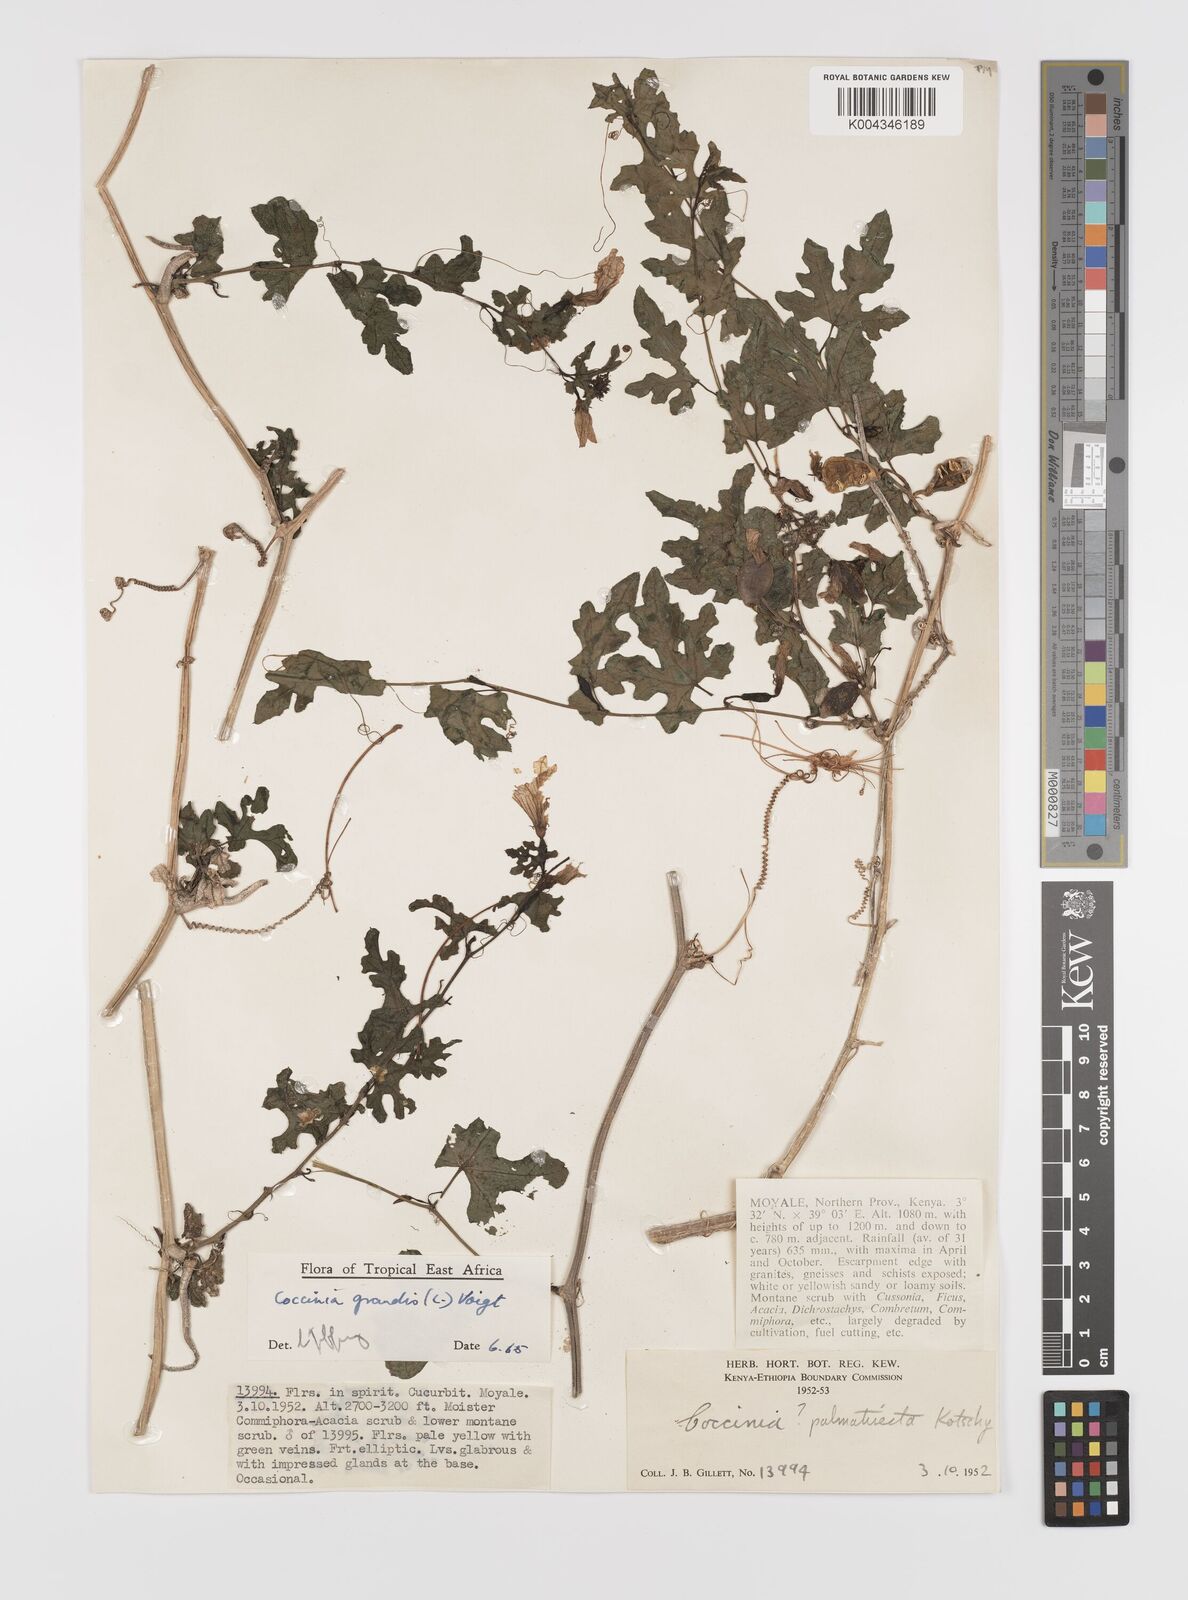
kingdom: Plantae
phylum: Tracheophyta
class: Magnoliopsida
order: Cucurbitales
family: Cucurbitaceae
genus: Coccinia
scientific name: Coccinia grandis
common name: Ivy gourd
